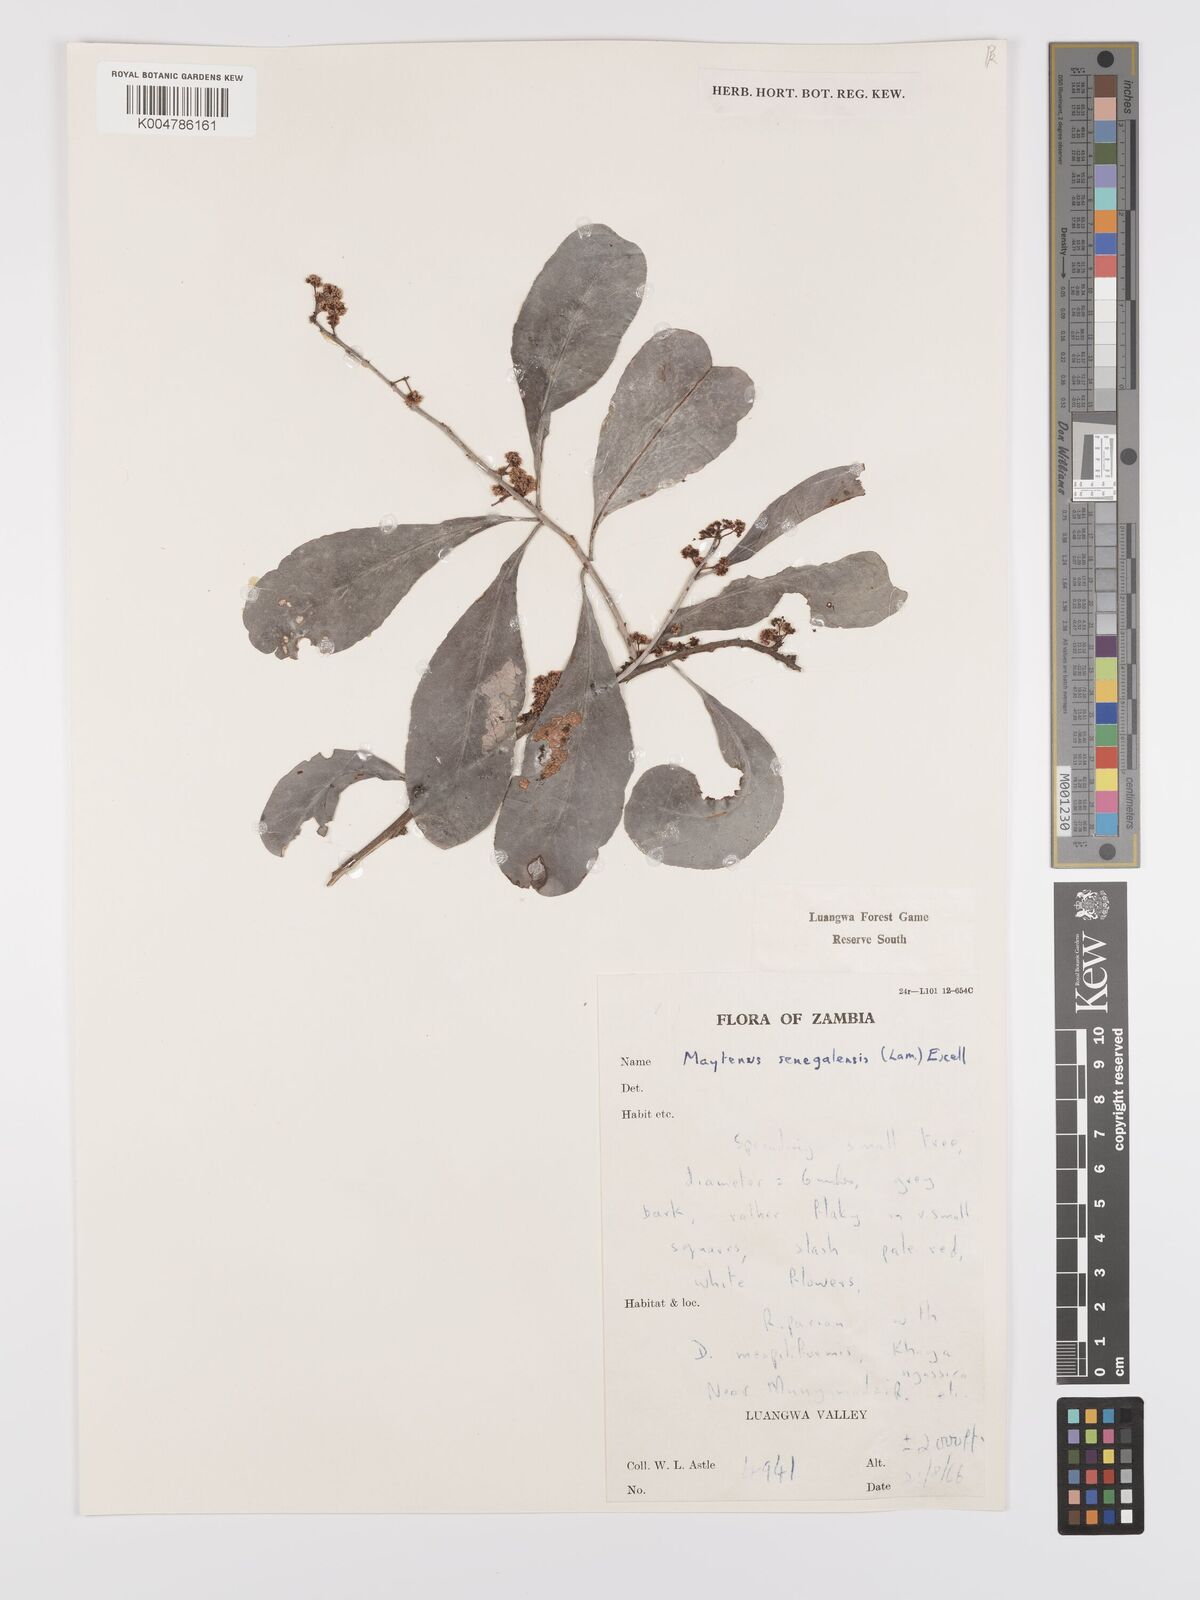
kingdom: Plantae
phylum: Tracheophyta
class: Magnoliopsida
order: Celastrales
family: Celastraceae
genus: Gymnosporia
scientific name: Gymnosporia senegalensis
